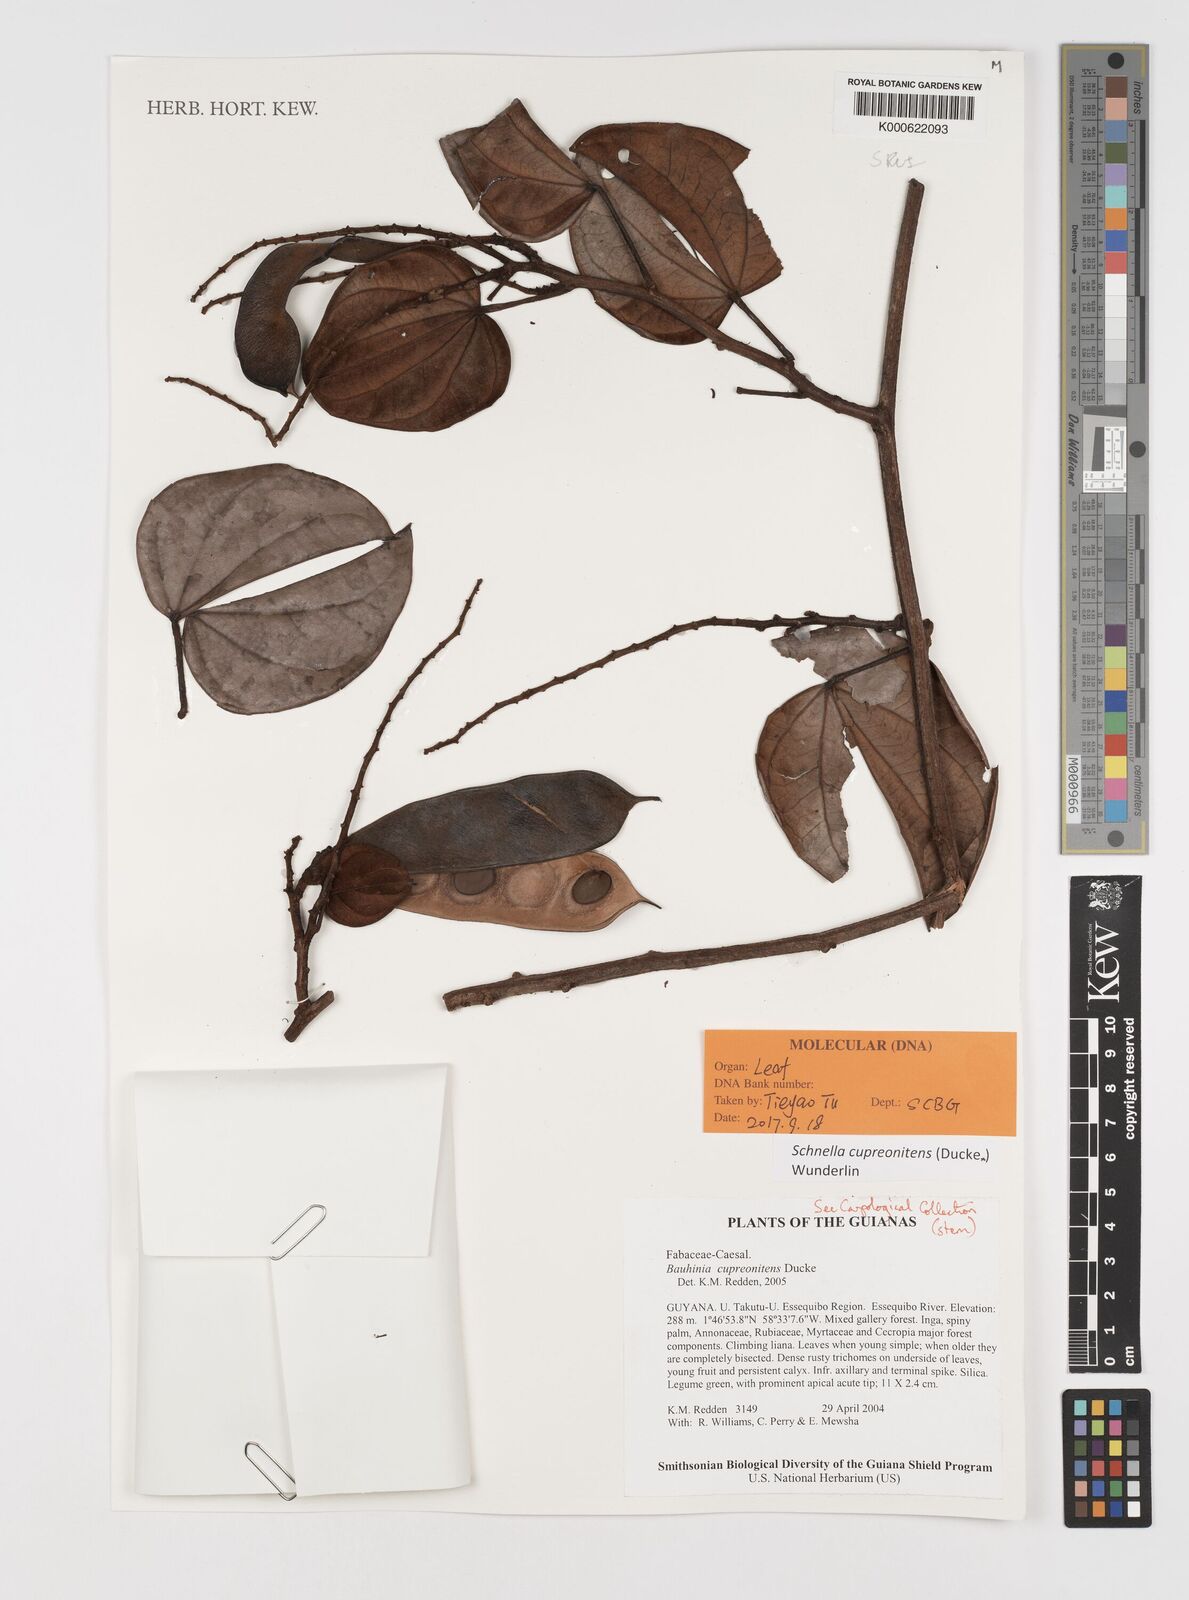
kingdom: Plantae
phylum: Tracheophyta
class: Magnoliopsida
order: Fabales
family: Fabaceae
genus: Schnella
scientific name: Schnella cupreonitens
